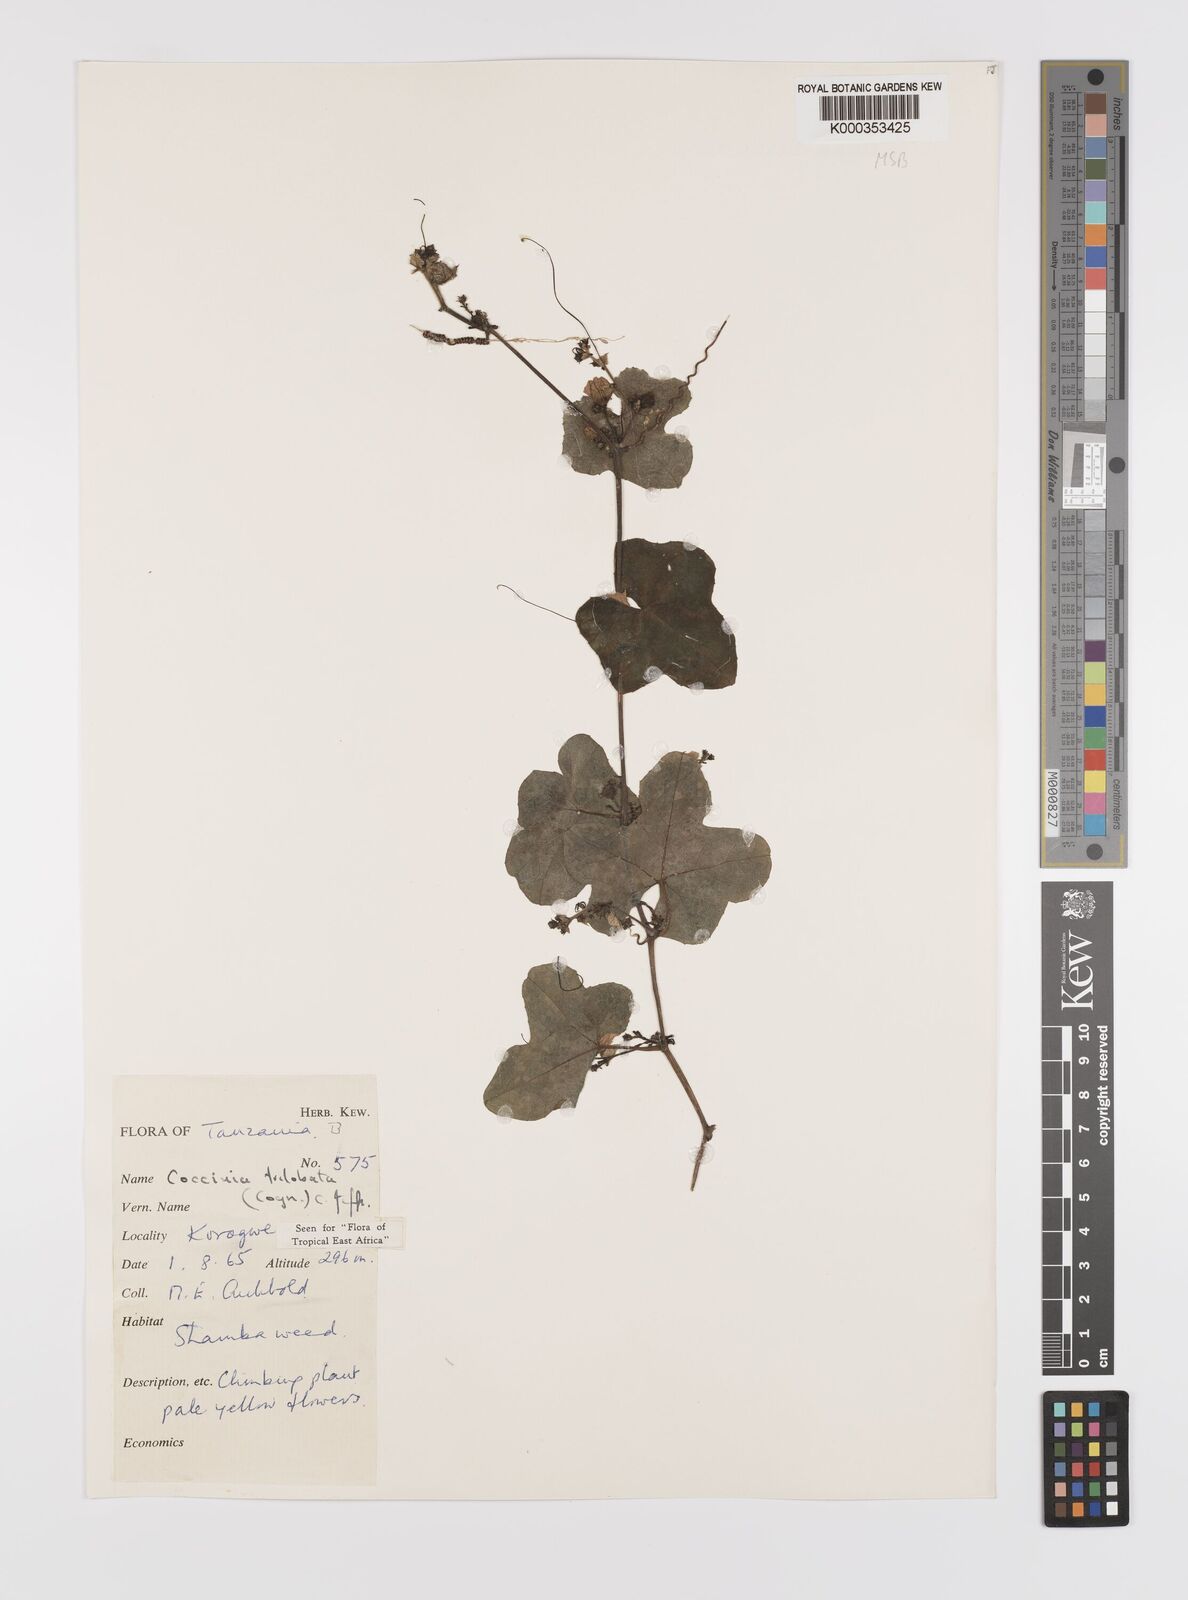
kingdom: Plantae
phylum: Tracheophyta
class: Magnoliopsida
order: Cucurbitales
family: Cucurbitaceae
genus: Coccinia
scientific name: Coccinia trilobata
